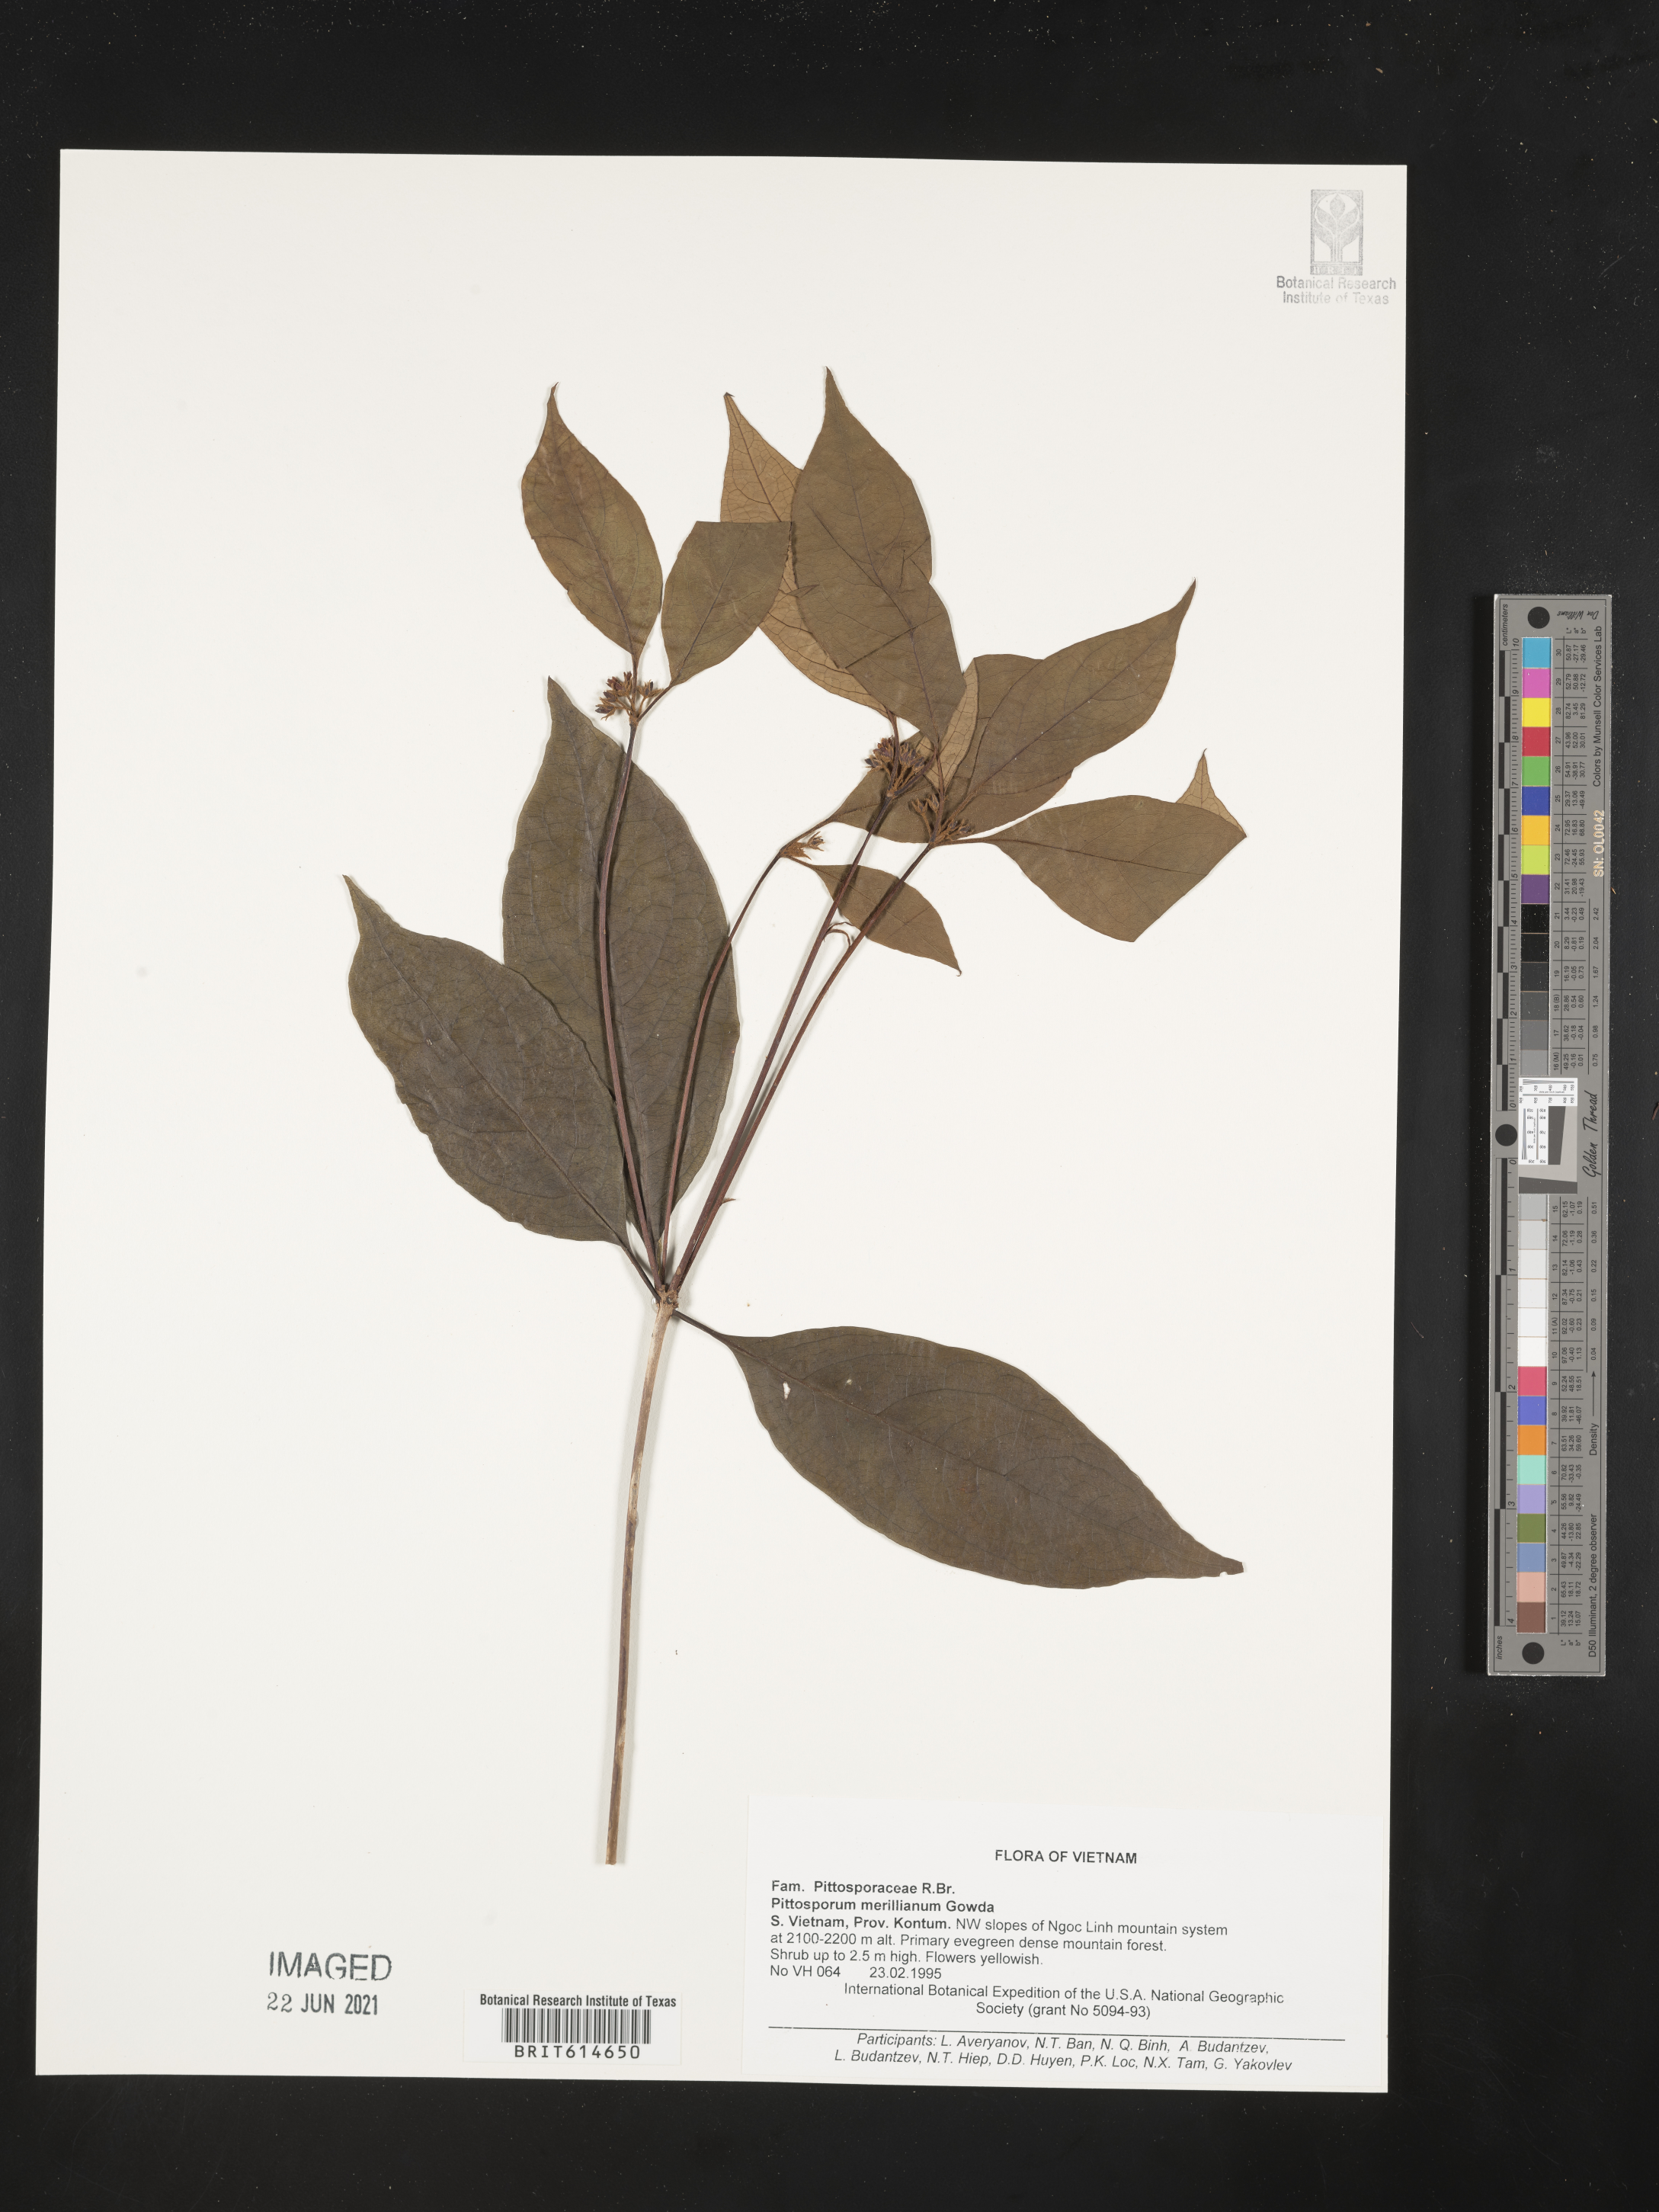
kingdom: Plantae
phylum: Tracheophyta
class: Magnoliopsida
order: Apiales
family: Pittosporaceae
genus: Pittosporum
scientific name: Pittosporum merrillianum
